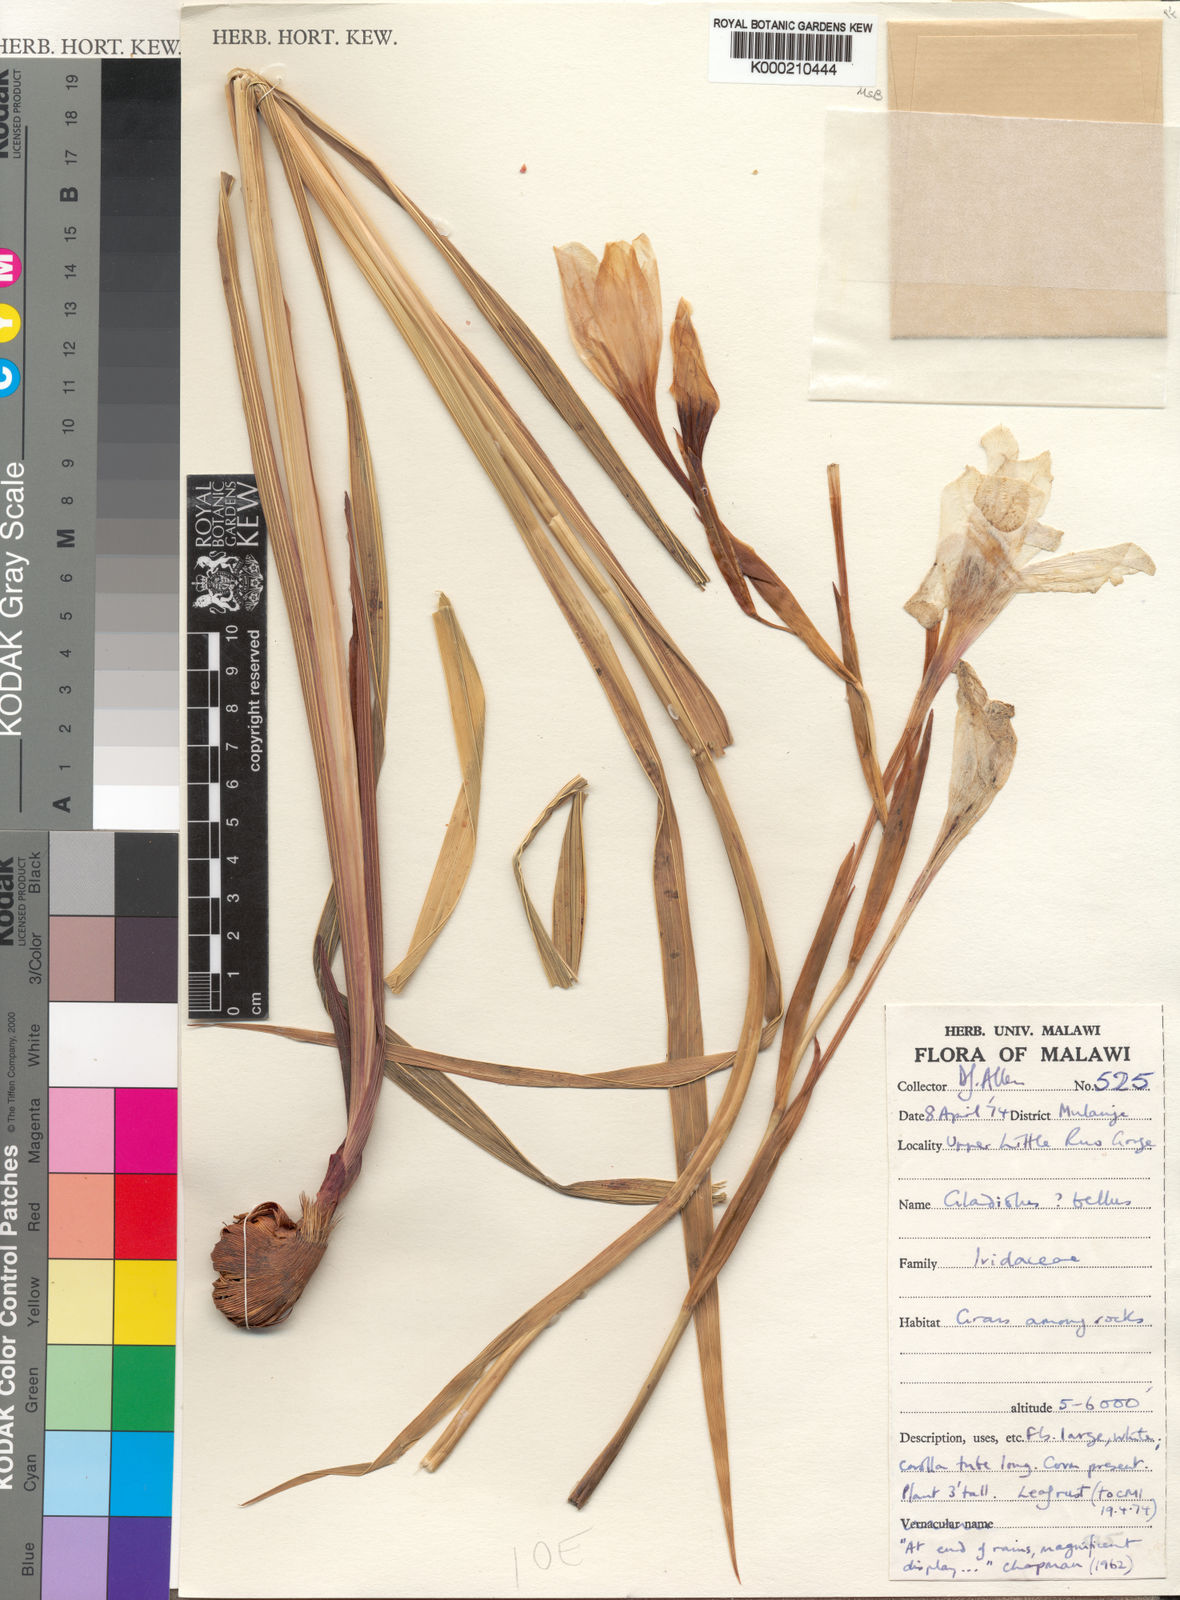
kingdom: Plantae
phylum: Tracheophyta
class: Liliopsida
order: Asparagales
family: Iridaceae
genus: Gladiolus
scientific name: Gladiolus bellus
